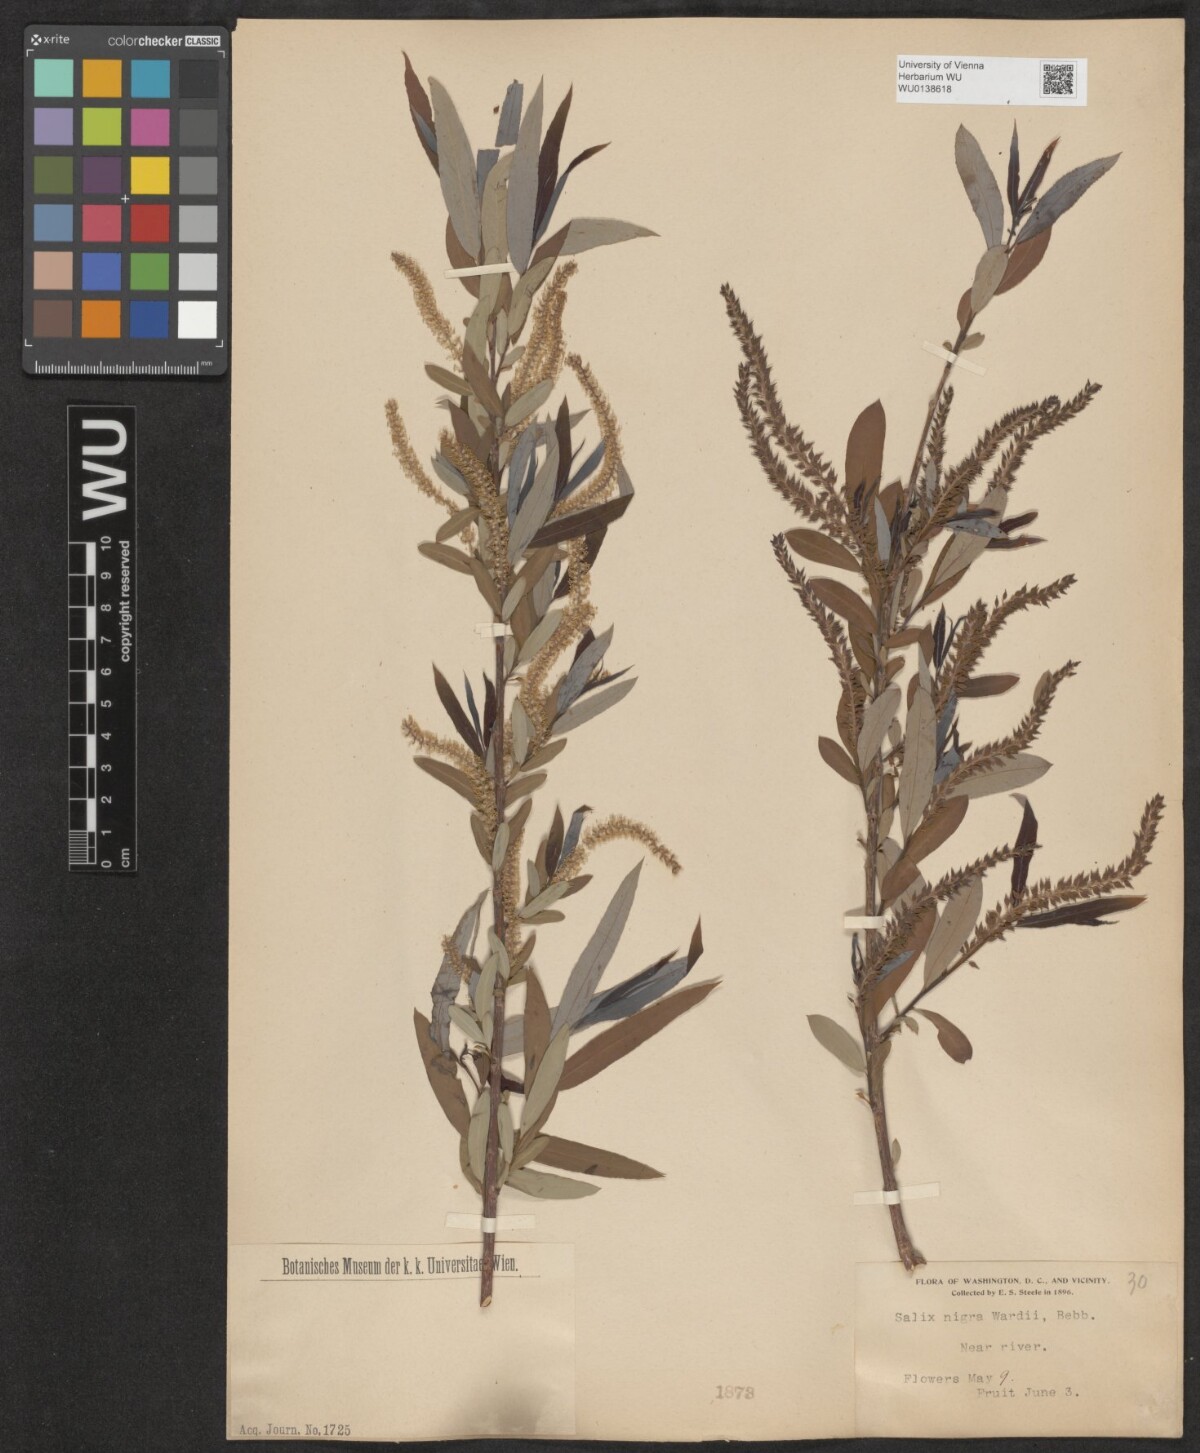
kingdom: Plantae
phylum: Tracheophyta
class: Magnoliopsida
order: Malpighiales
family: Salicaceae
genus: Salix
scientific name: Salix nigra
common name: Black willow
